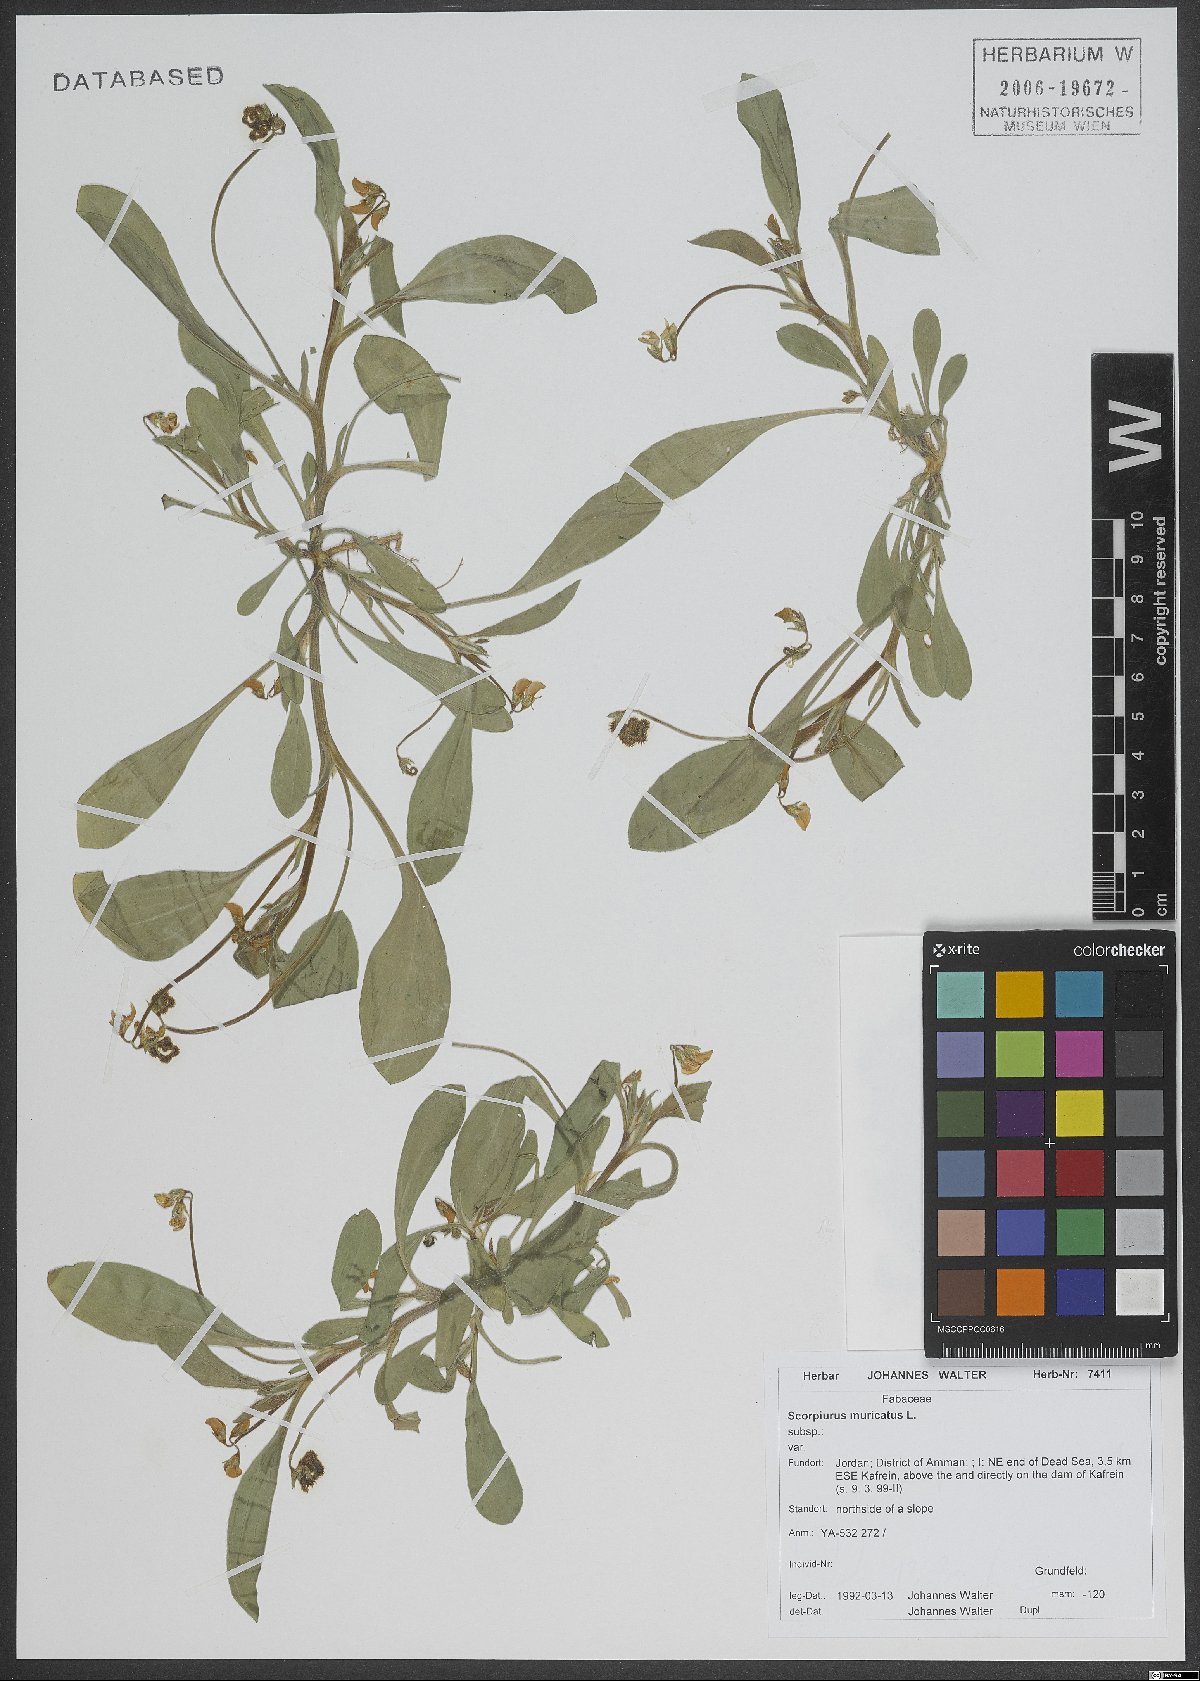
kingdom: Plantae
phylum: Tracheophyta
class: Magnoliopsida
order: Fabales
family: Fabaceae
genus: Scorpiurus
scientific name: Scorpiurus muricatus
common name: Caterpillar-plant
